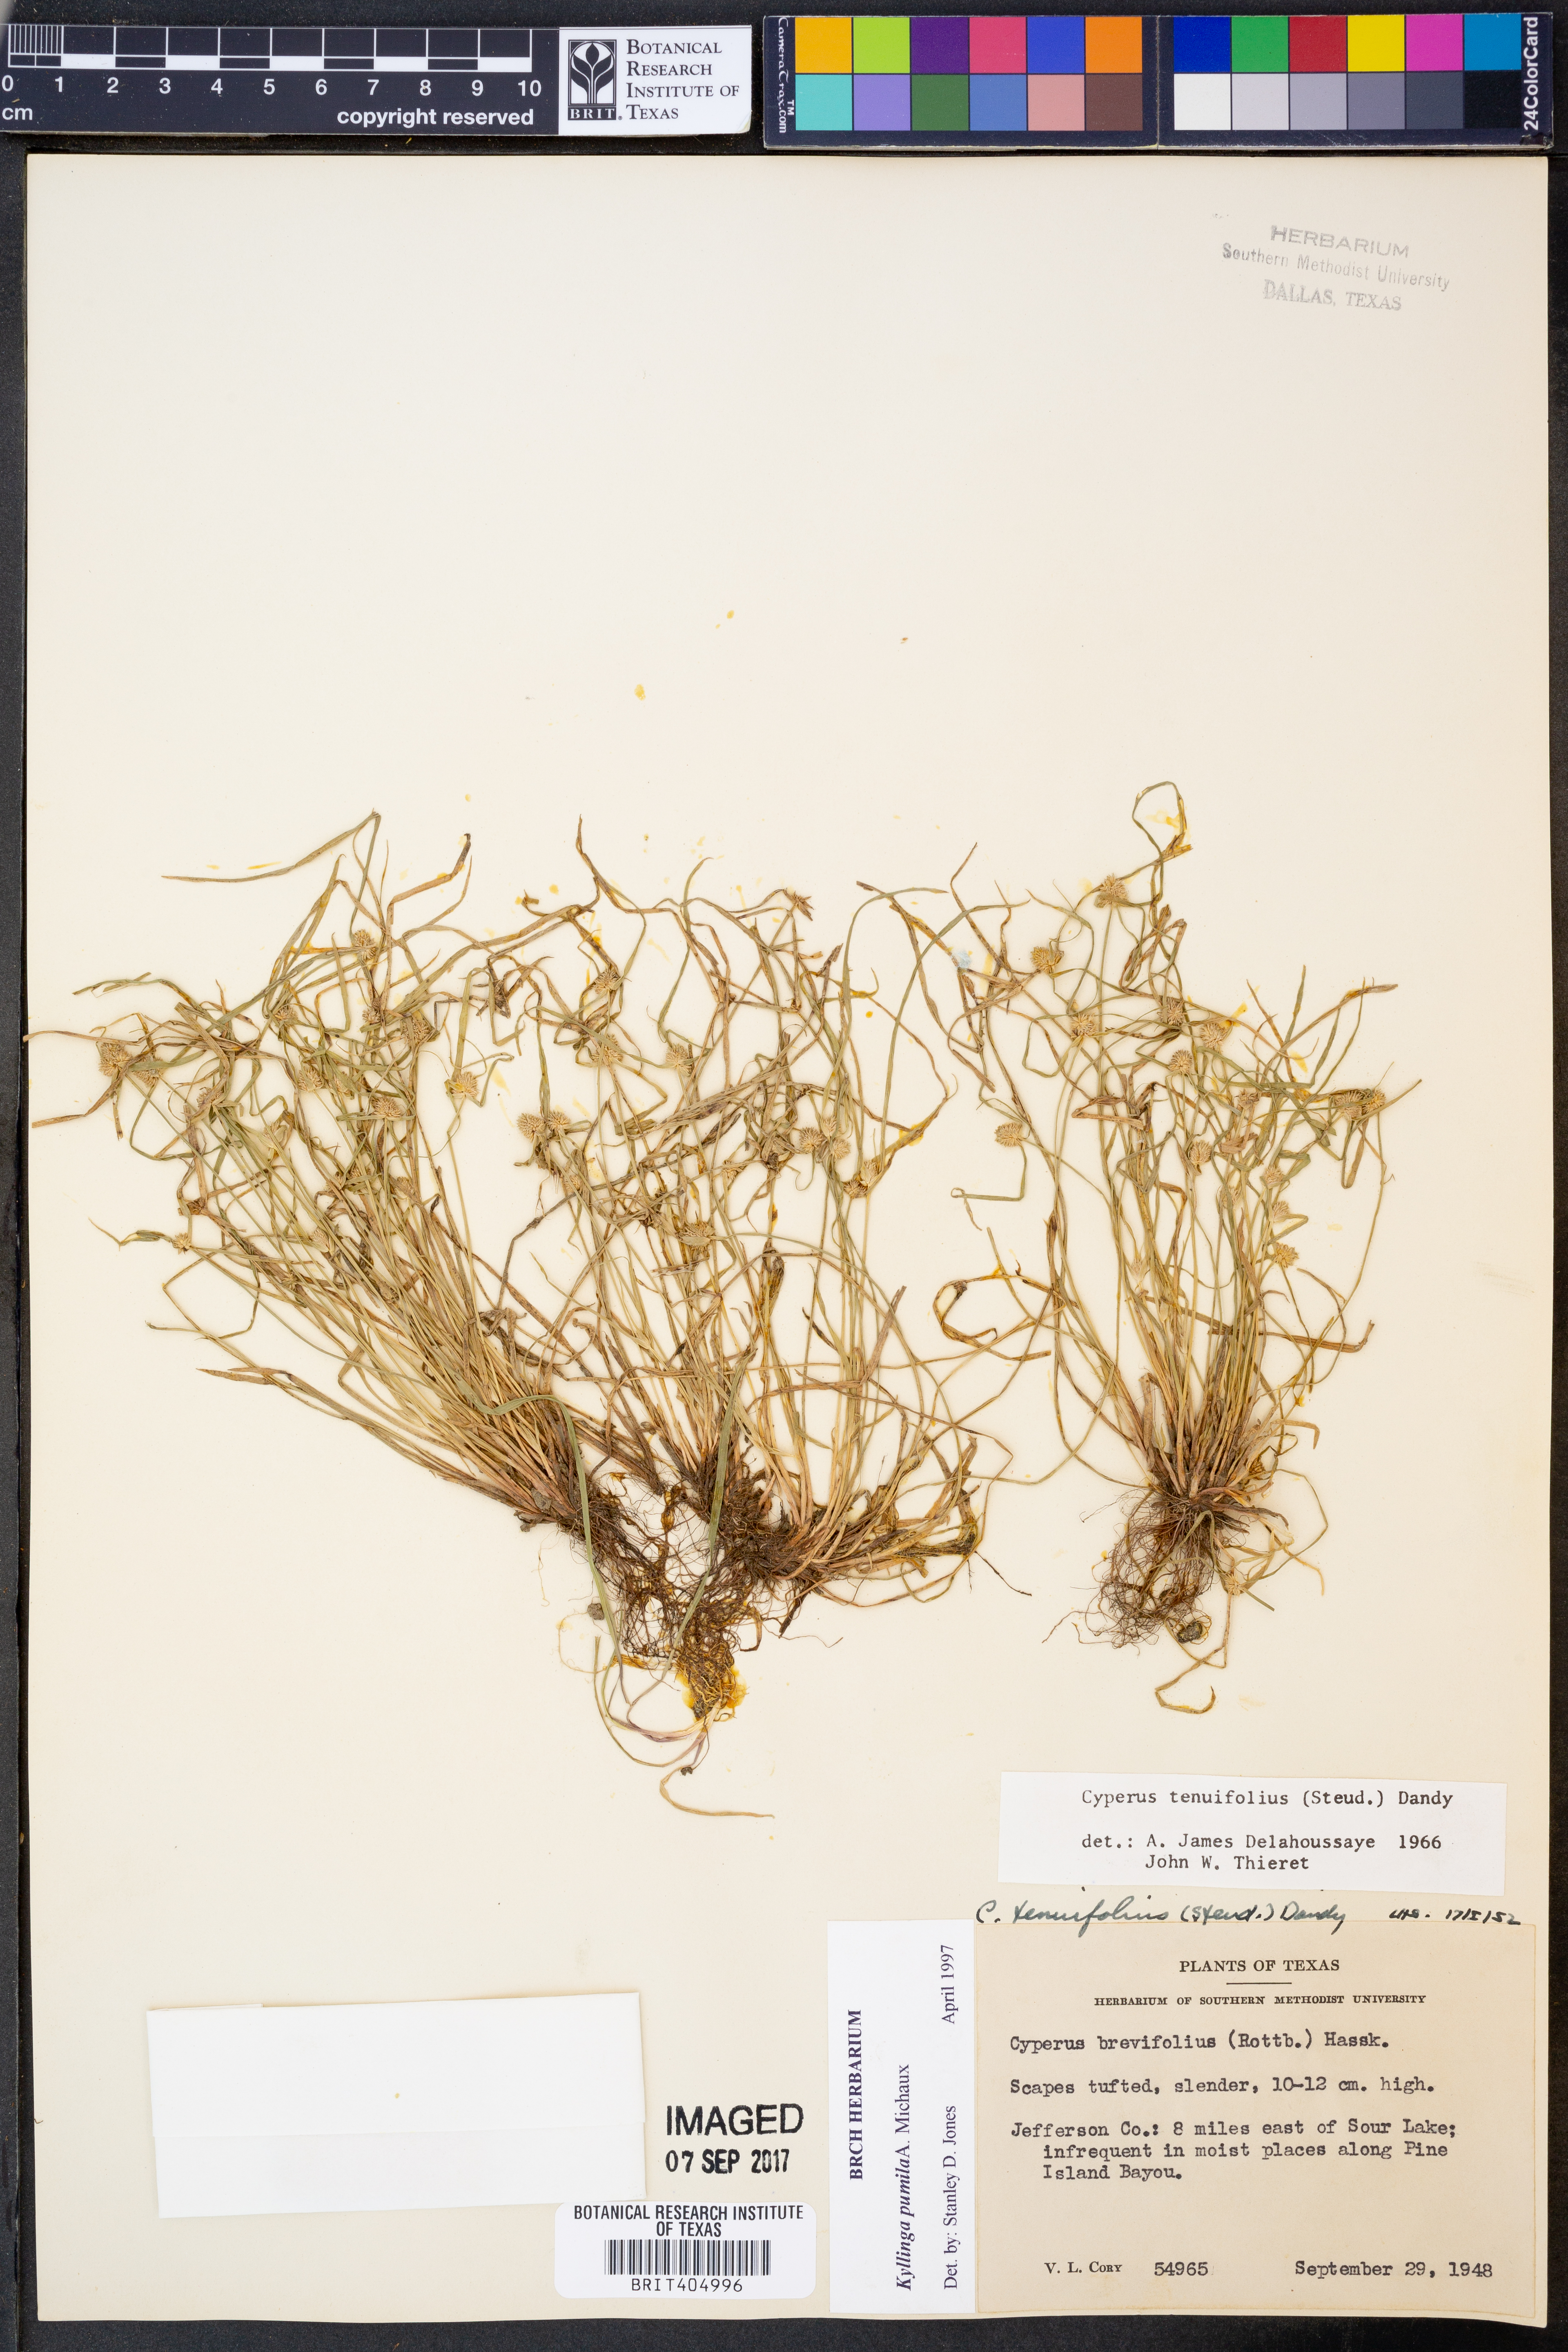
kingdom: Plantae
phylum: Tracheophyta
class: Liliopsida
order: Poales
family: Cyperaceae
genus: Cyperus
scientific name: Cyperus hortensis
